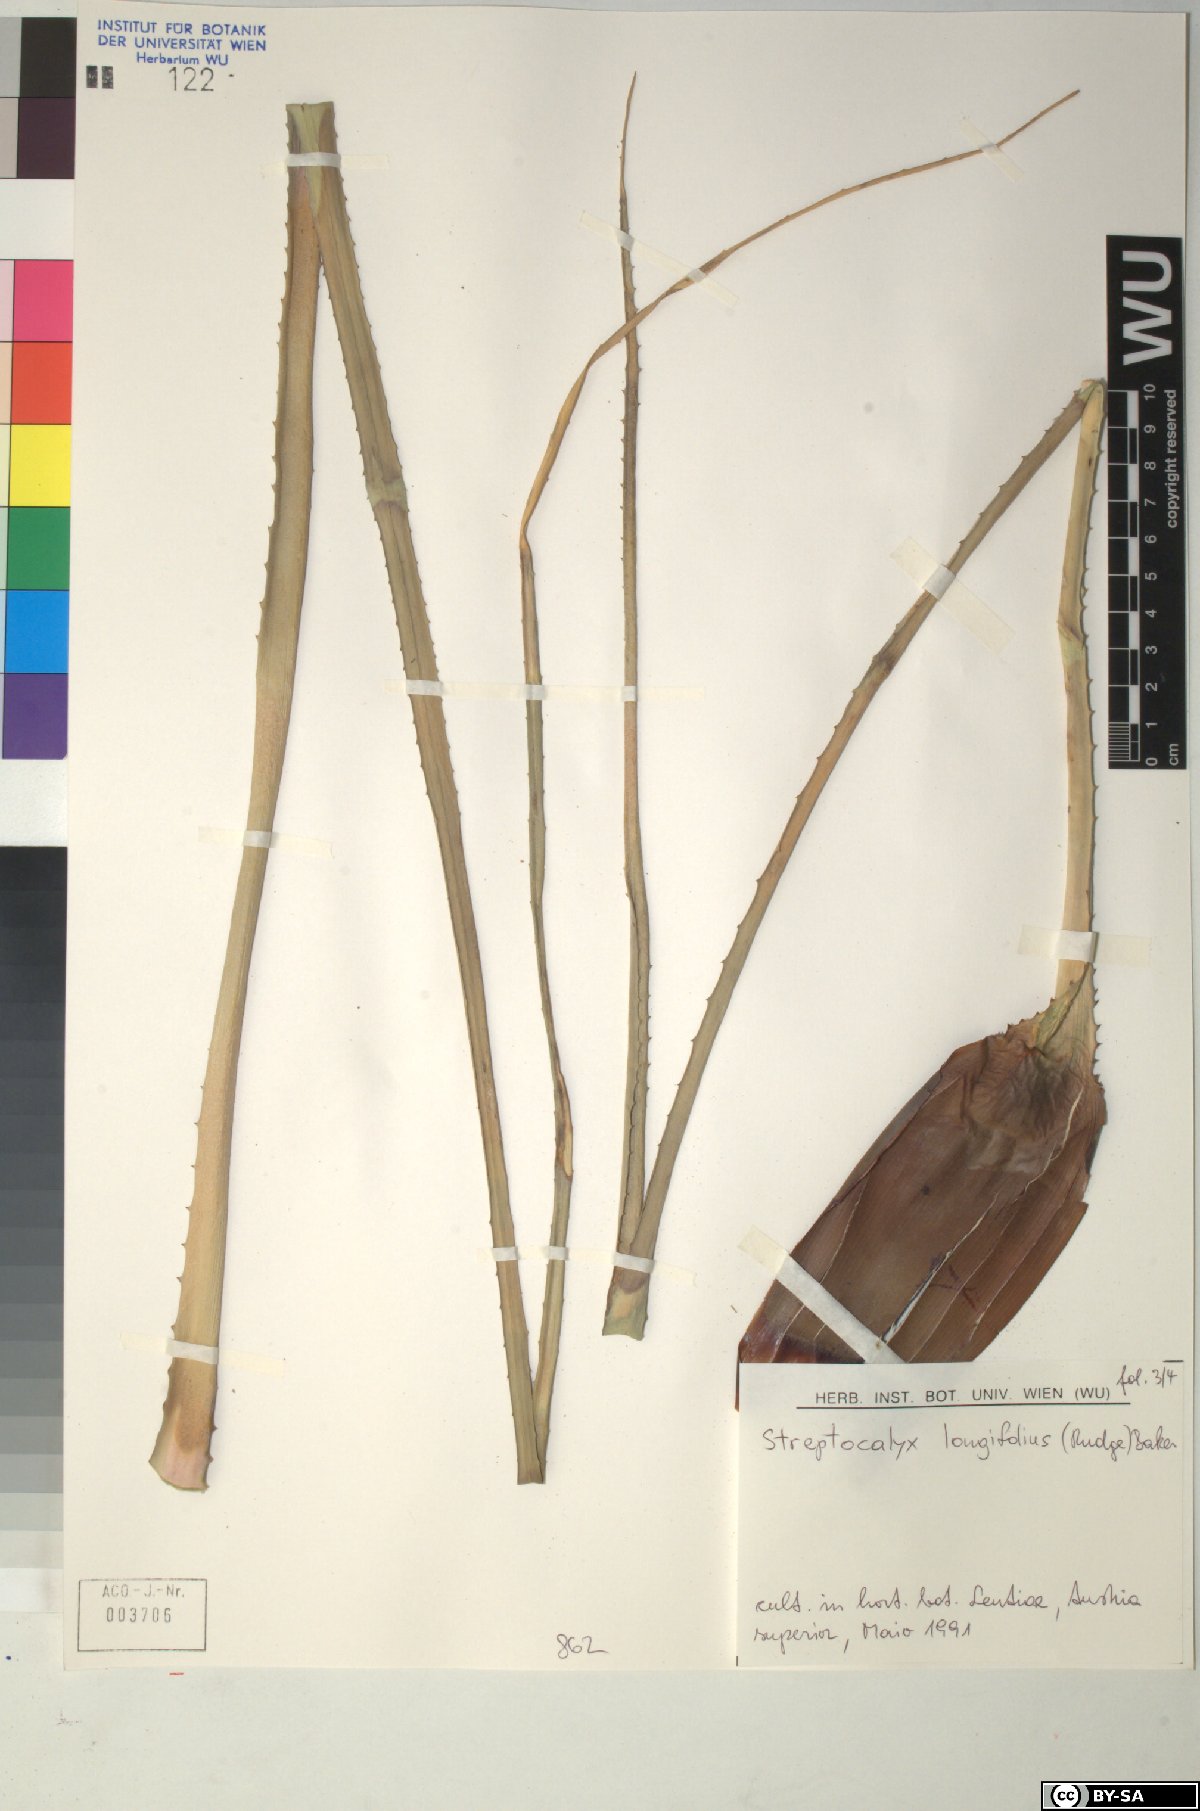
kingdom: Plantae
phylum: Tracheophyta
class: Liliopsida
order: Poales
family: Bromeliaceae
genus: Aechmea
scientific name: Aechmea
